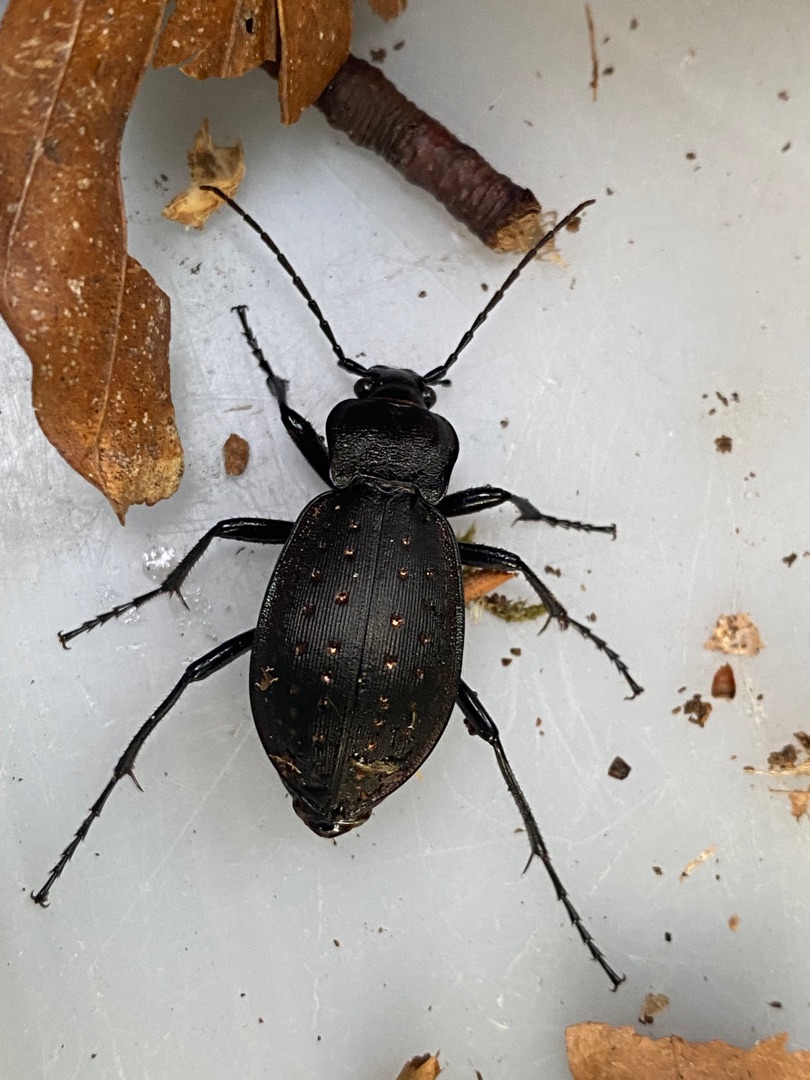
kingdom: Animalia
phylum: Arthropoda
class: Insecta
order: Coleoptera
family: Carabidae
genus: Carabus
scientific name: Carabus hortensis
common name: Guldpletløber
